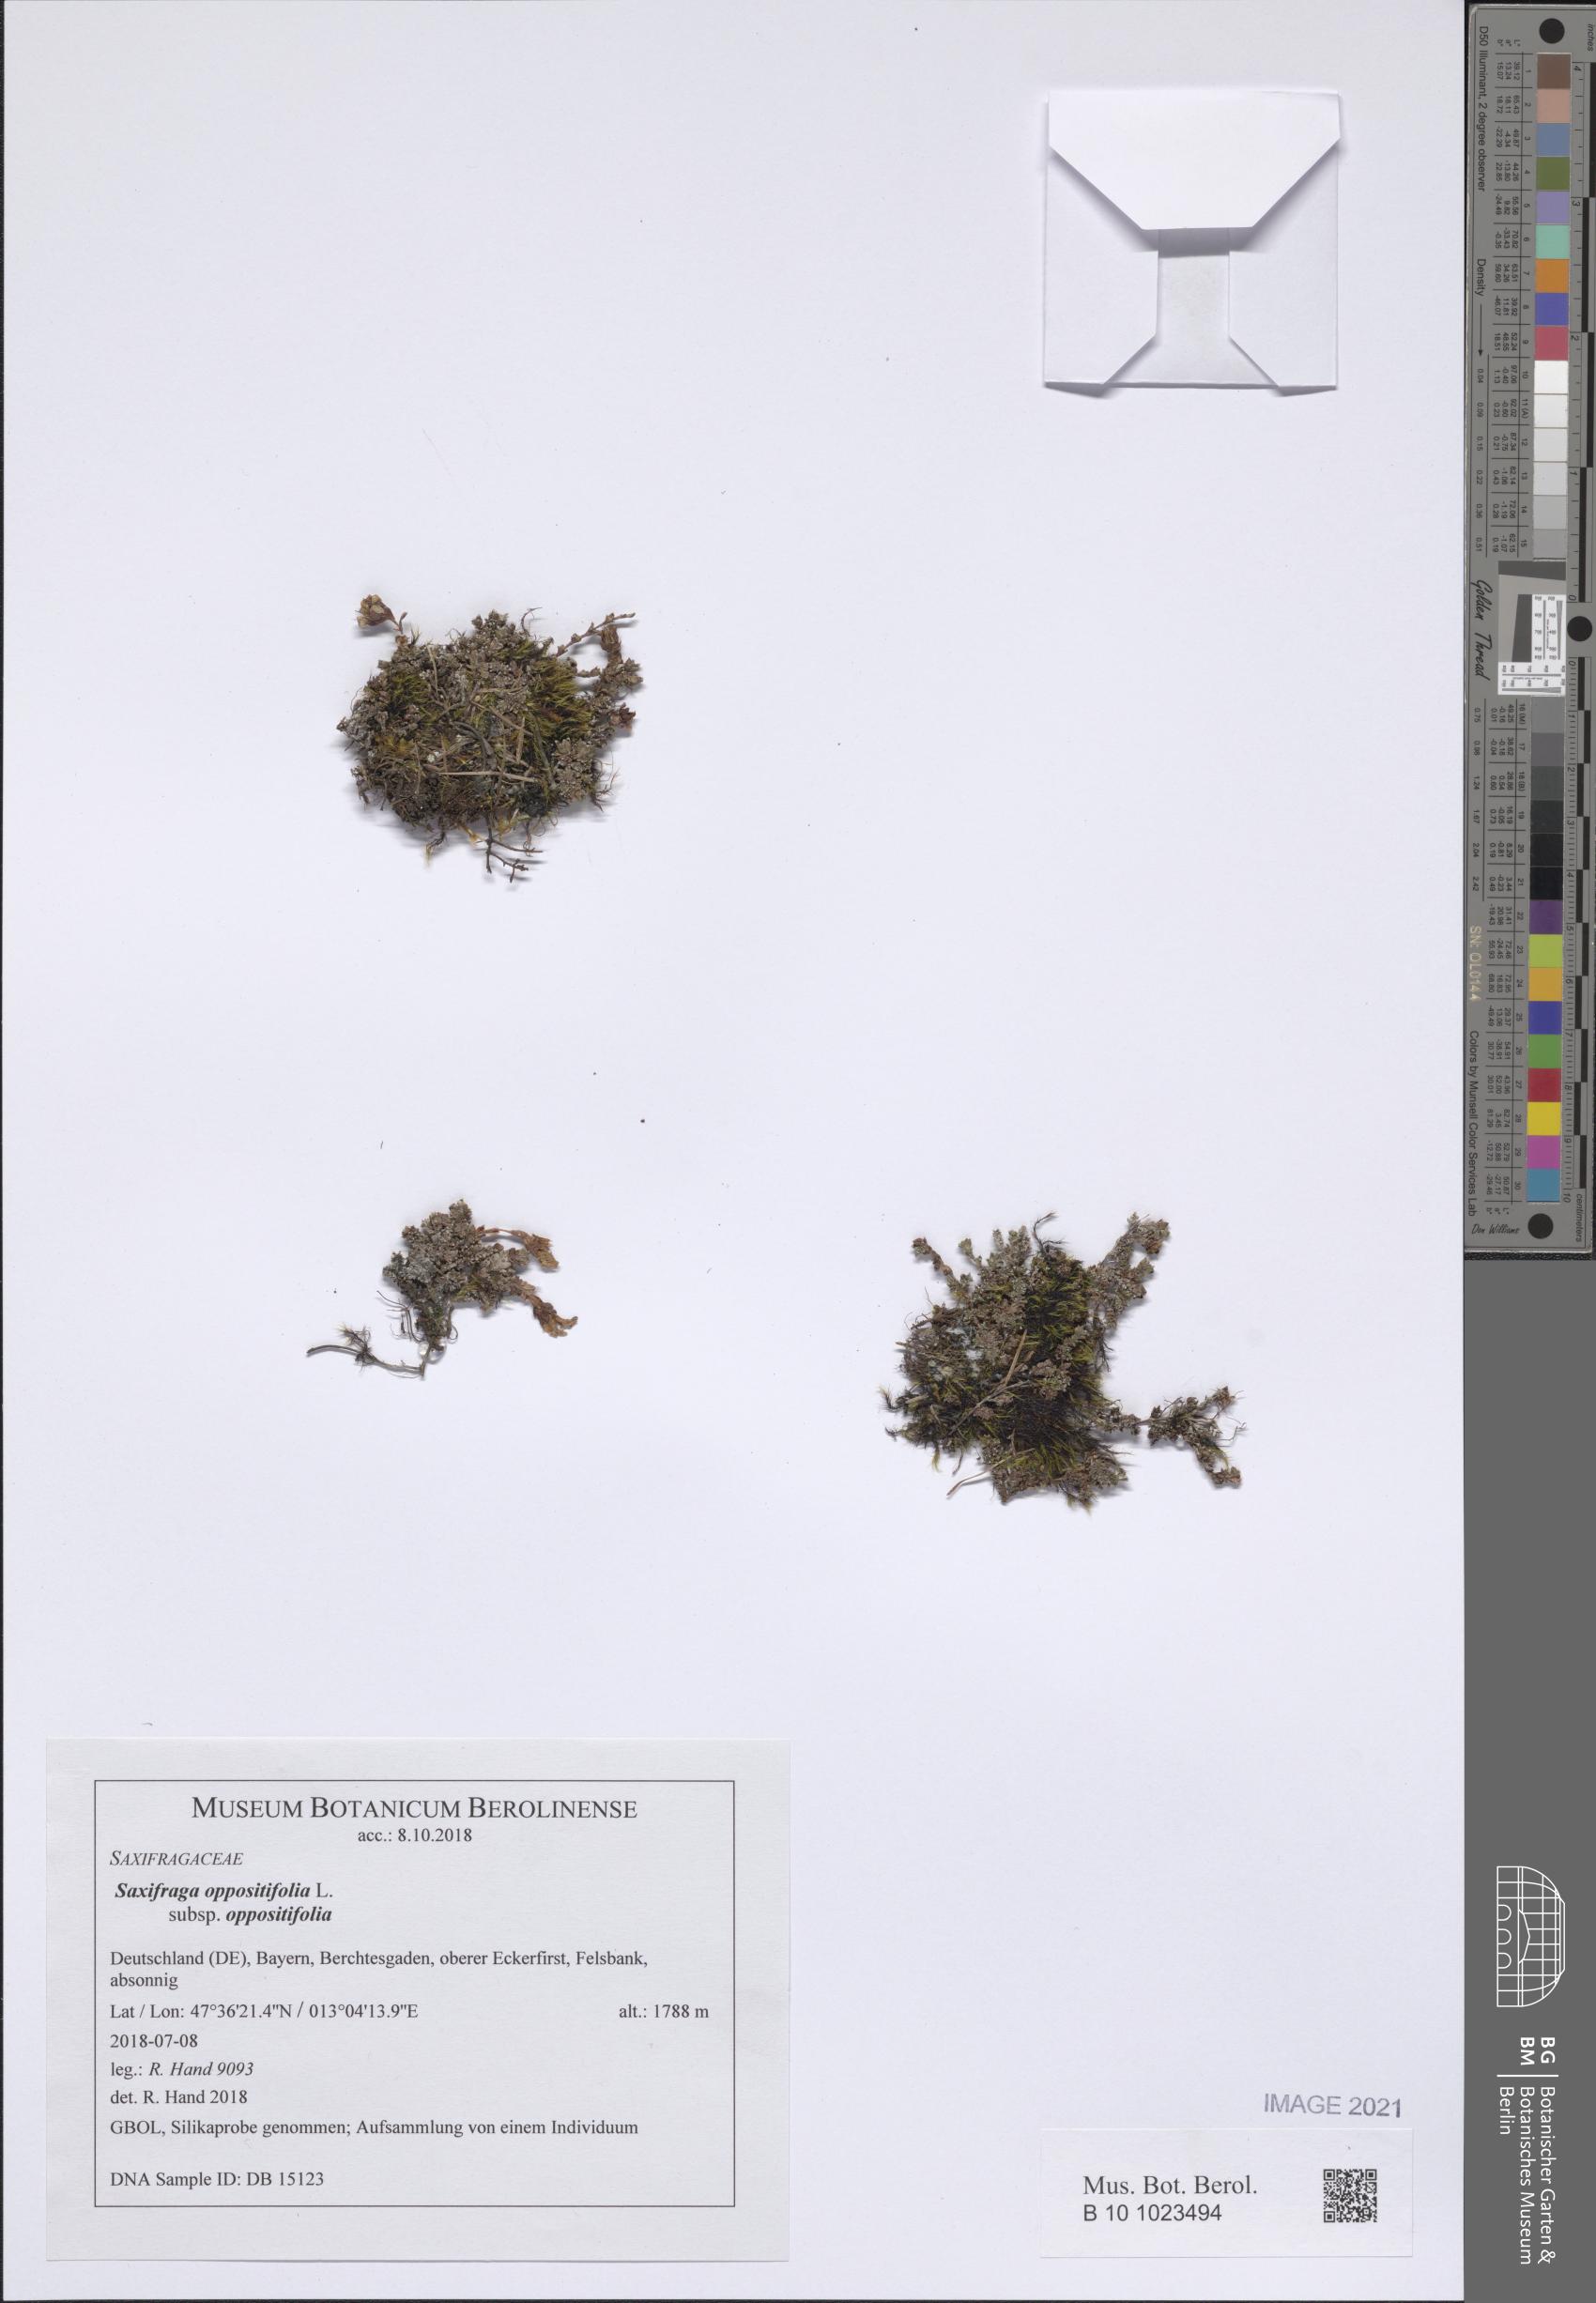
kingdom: Plantae
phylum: Tracheophyta
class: Magnoliopsida
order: Saxifragales
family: Saxifragaceae
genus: Saxifraga
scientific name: Saxifraga oppositifolia
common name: Purple saxifrage
